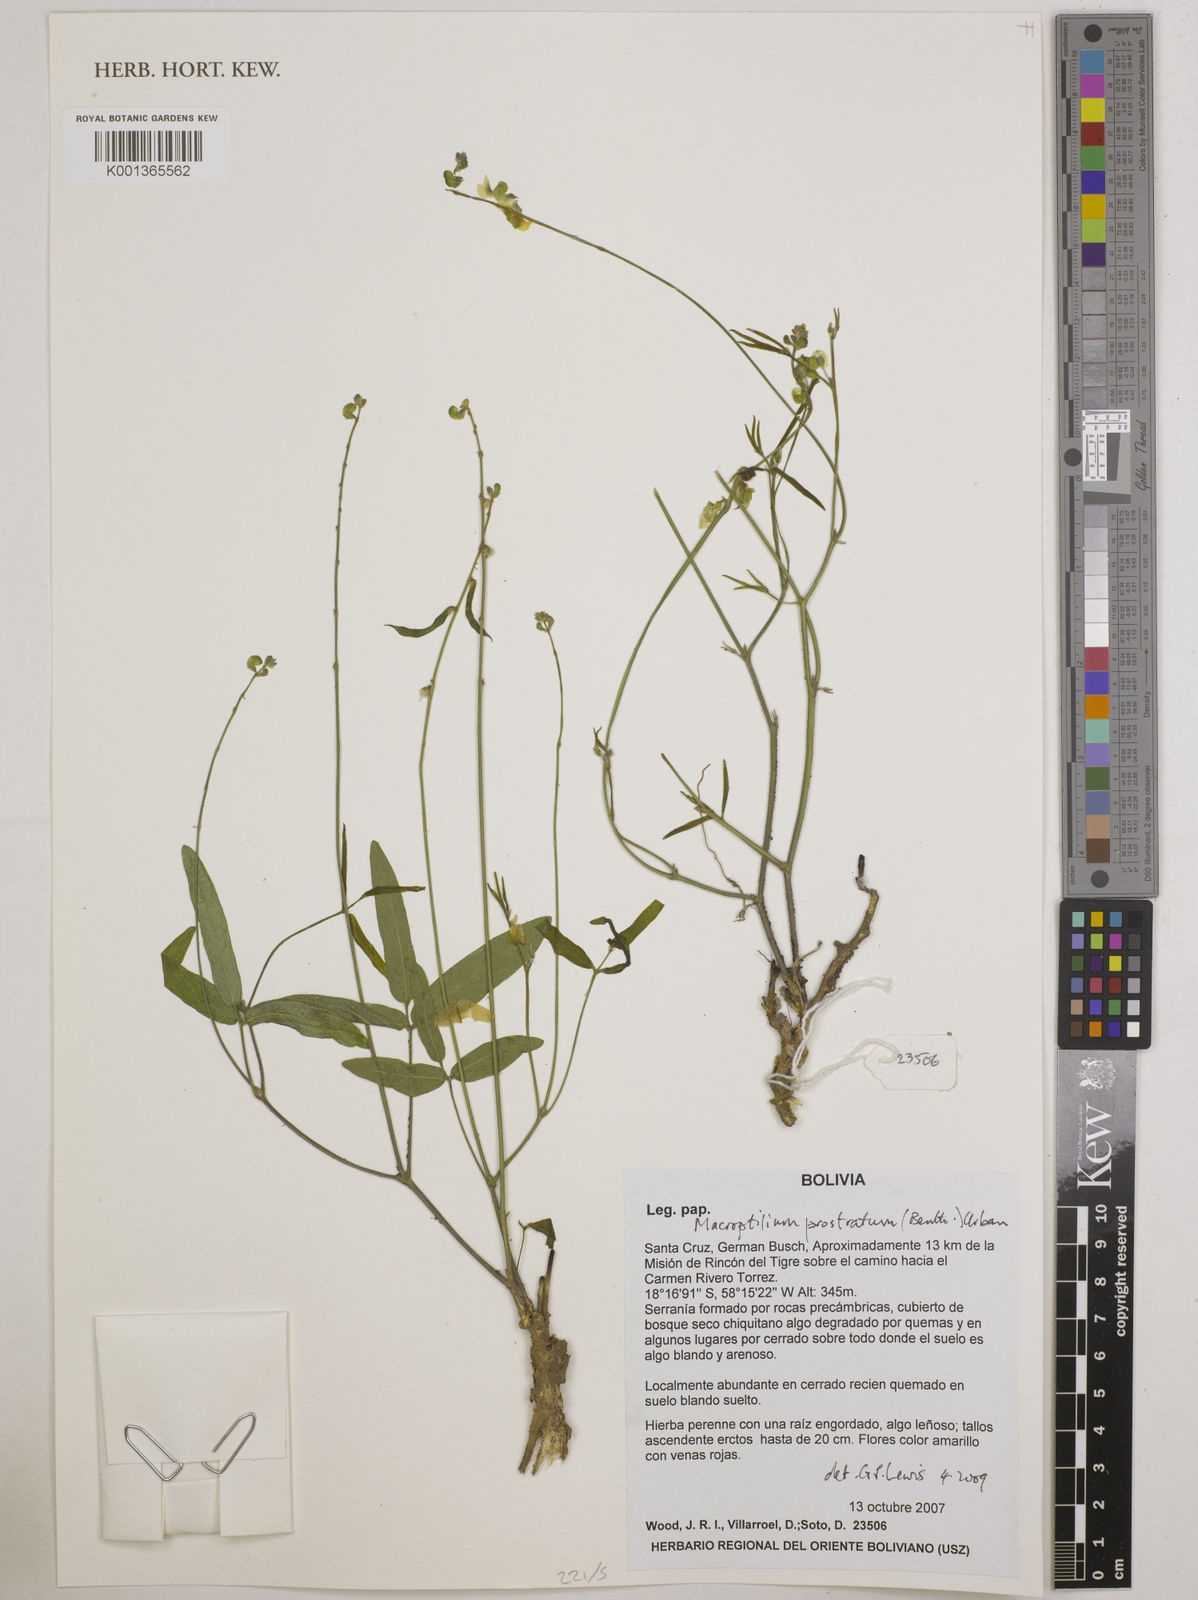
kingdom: Plantae
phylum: Tracheophyta
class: Magnoliopsida
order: Fabales
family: Fabaceae
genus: Macroptilium
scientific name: Macroptilium prostratum
